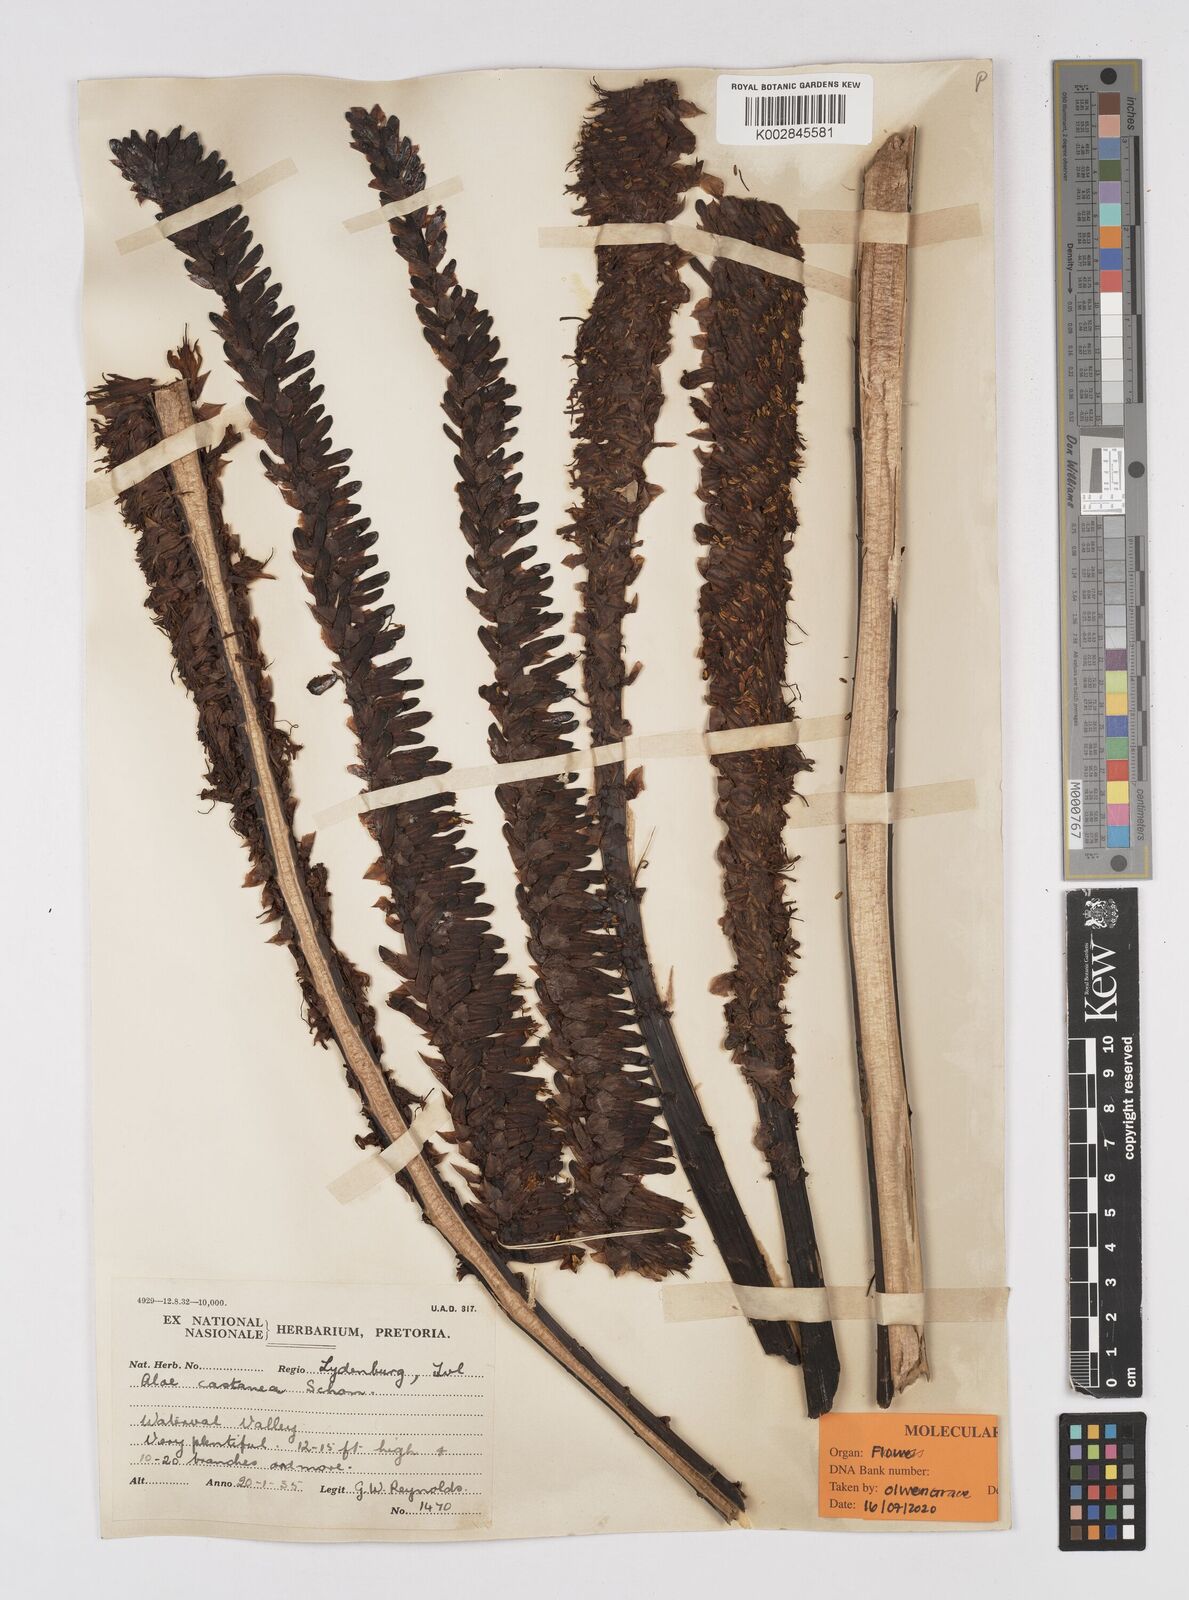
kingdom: Plantae
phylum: Tracheophyta
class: Liliopsida
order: Asparagales
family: Asphodelaceae
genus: Aloe
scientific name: Aloe castanea
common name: Cat's-tail aloe
